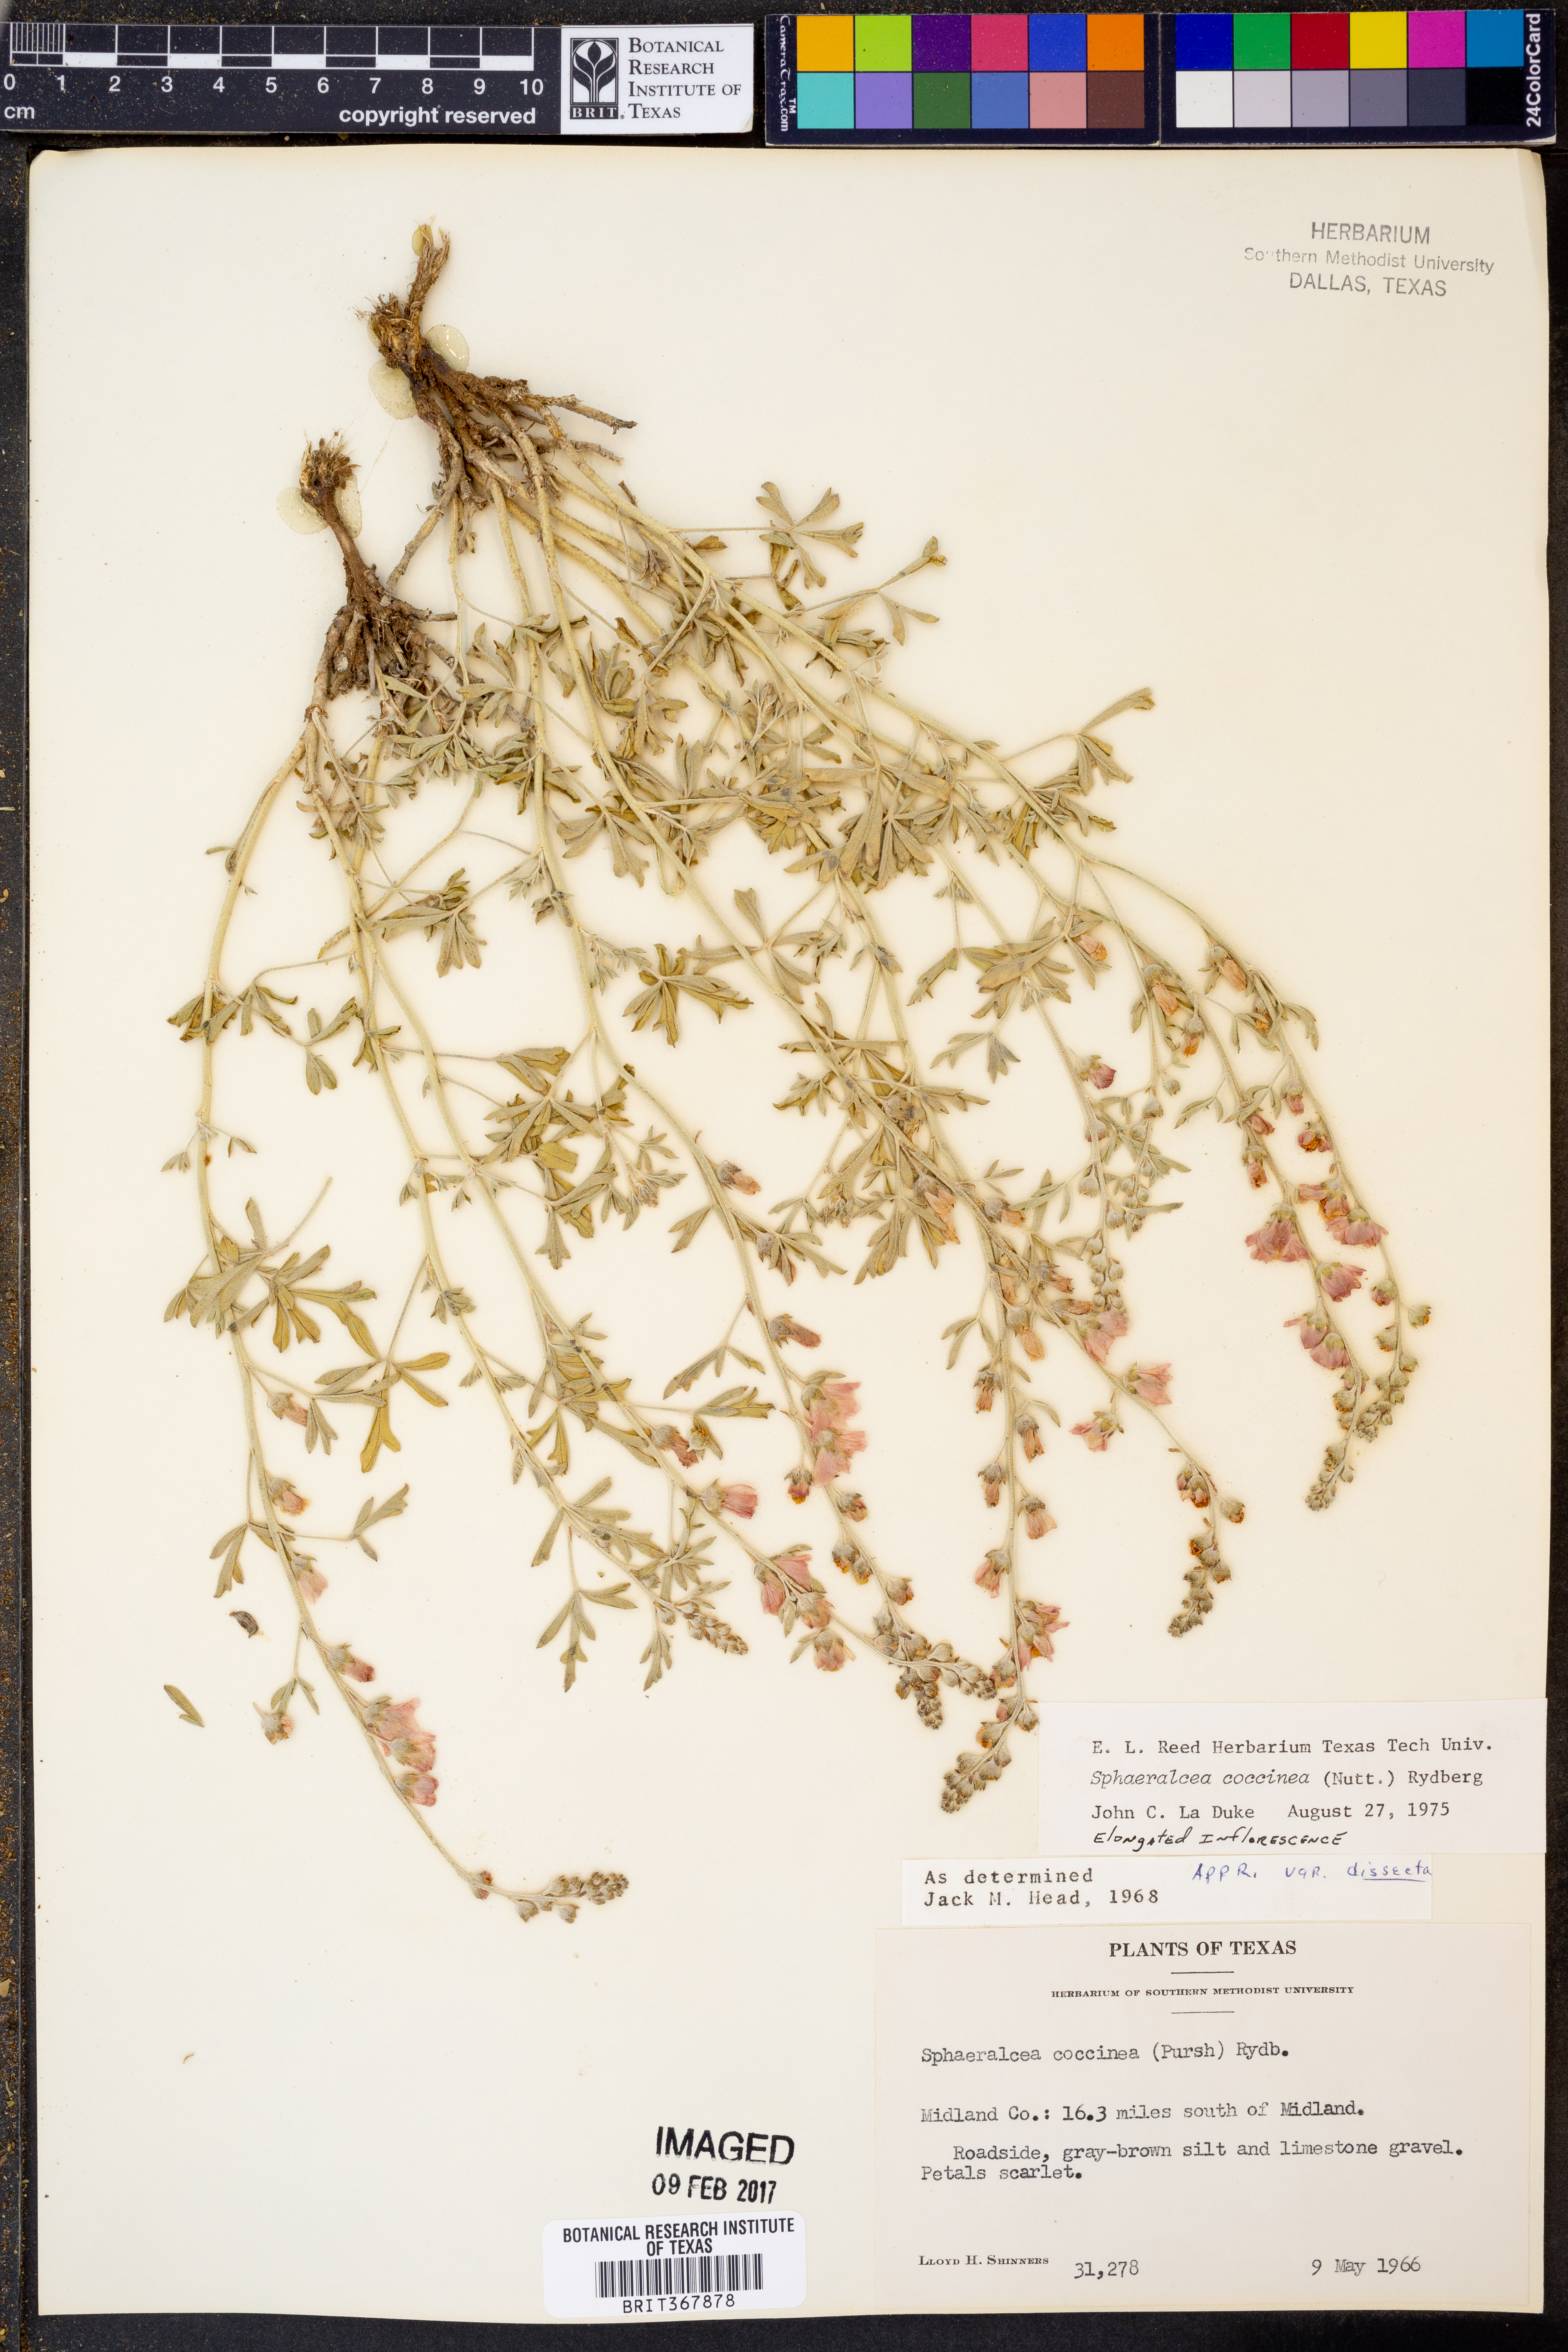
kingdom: Plantae
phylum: Tracheophyta
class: Magnoliopsida
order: Malvales
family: Malvaceae
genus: Sphaeralcea
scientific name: Sphaeralcea coccinea
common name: Moss-rose
